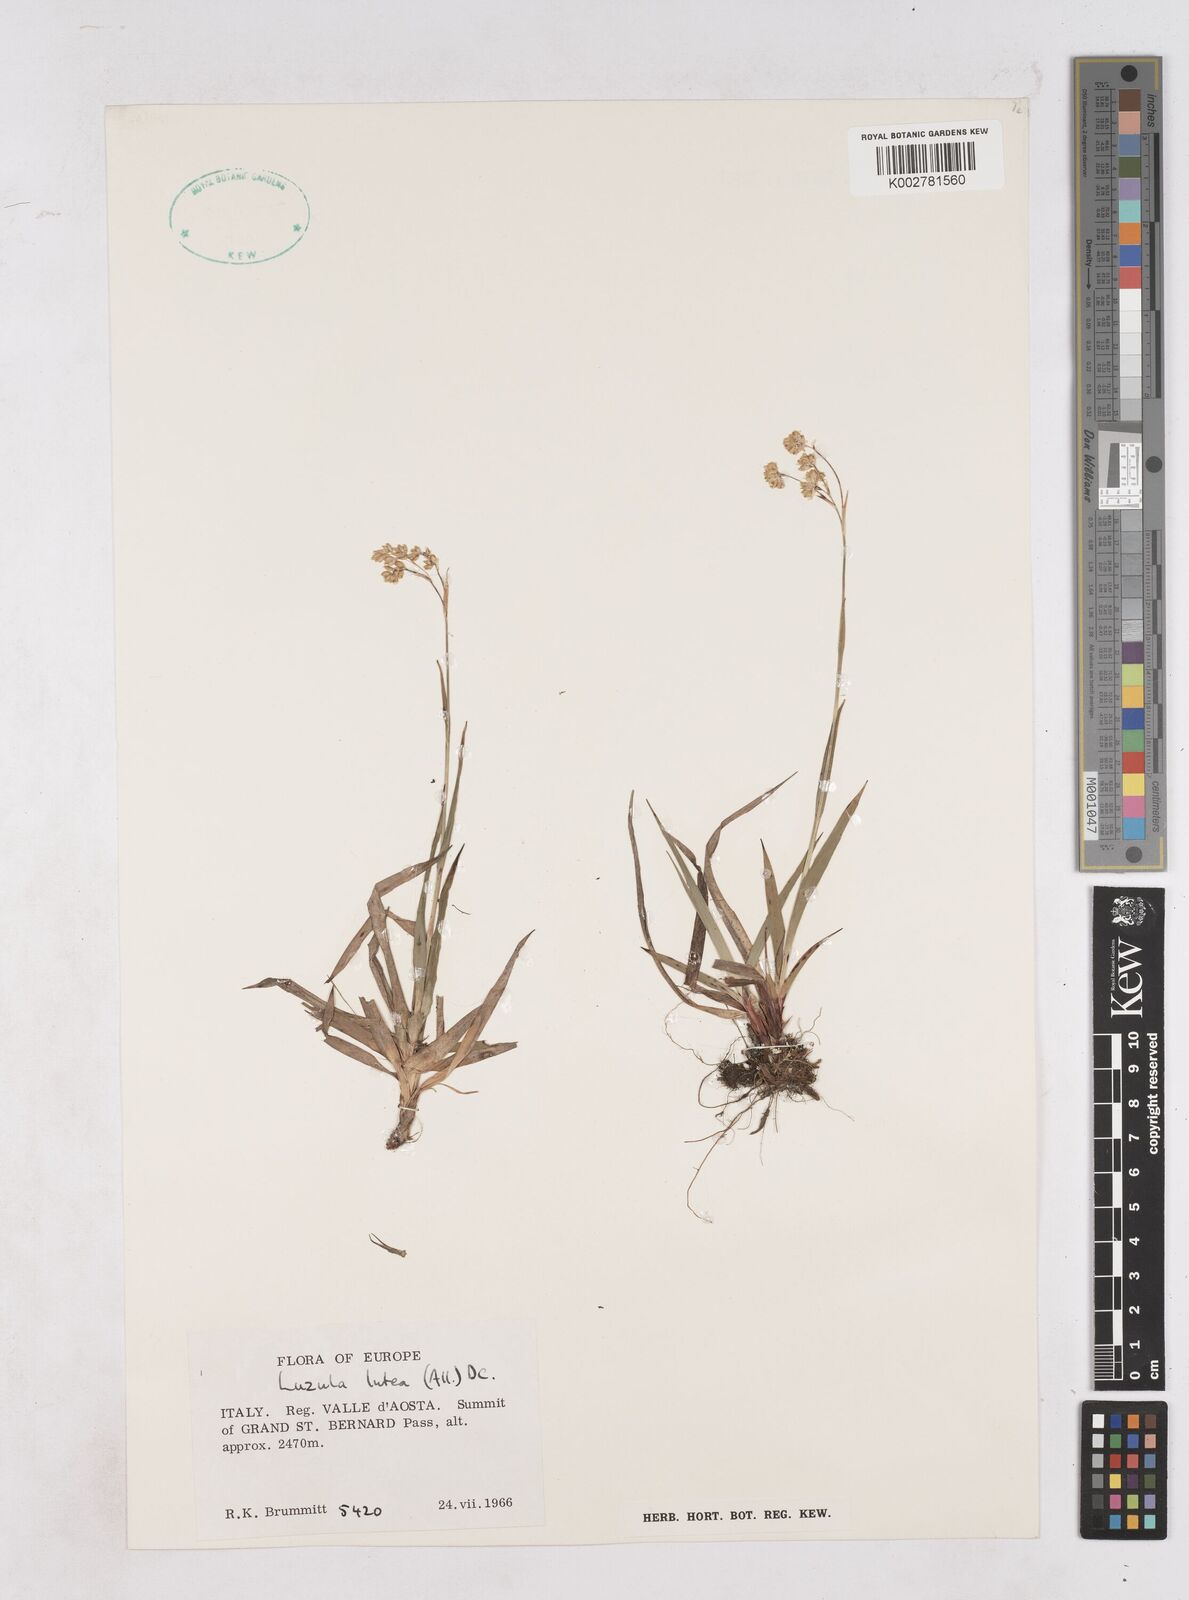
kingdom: Plantae
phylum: Tracheophyta
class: Liliopsida
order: Poales
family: Juncaceae
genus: Luzula
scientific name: Luzula lutea
